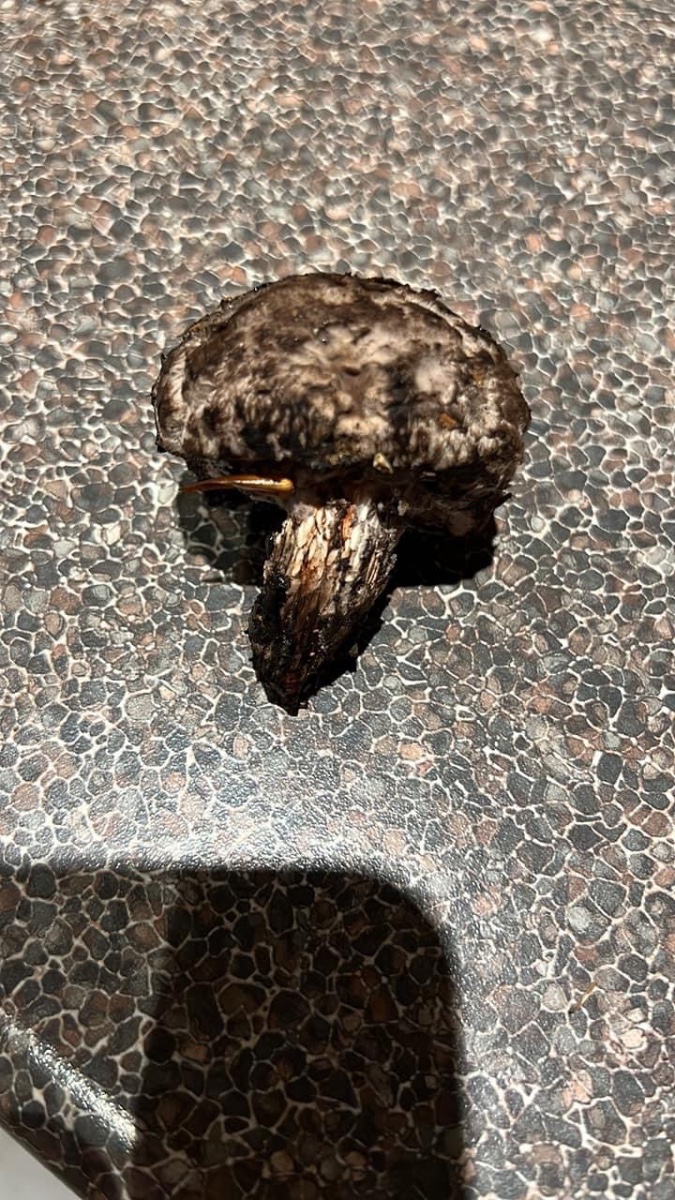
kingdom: Fungi
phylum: Basidiomycota
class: Agaricomycetes
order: Boletales
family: Boletaceae
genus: Strobilomyces
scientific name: Strobilomyces strobilaceus
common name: koglerørhat
